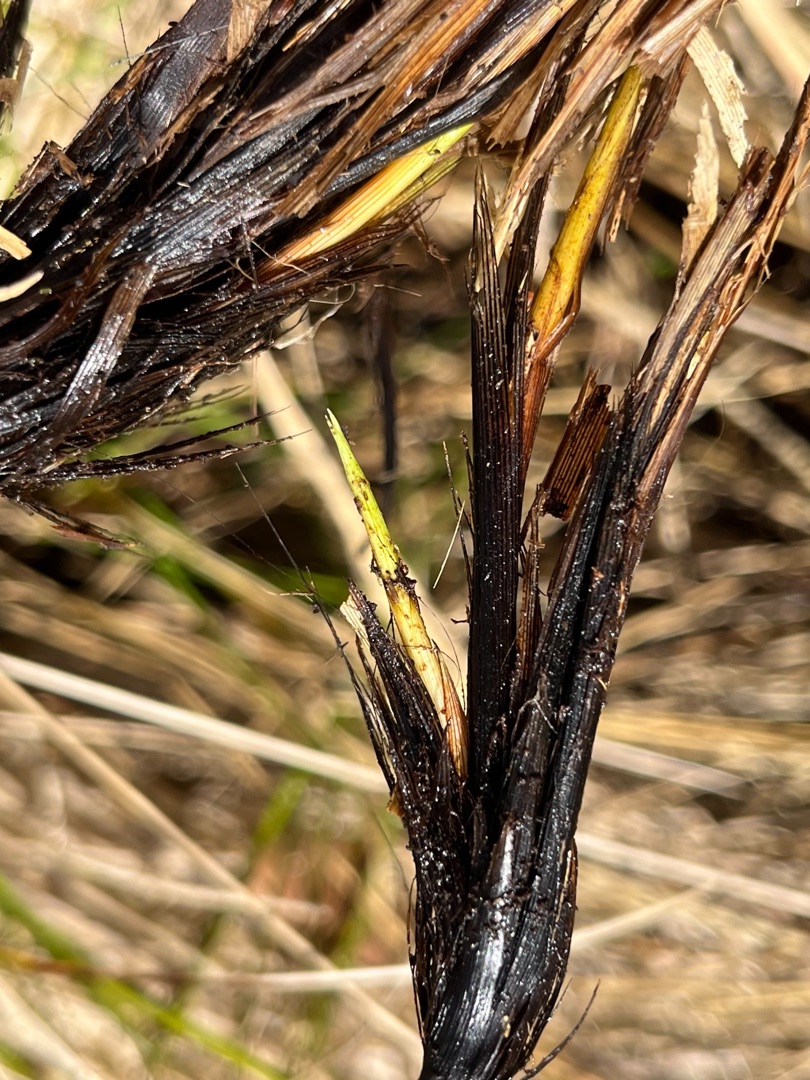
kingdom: Plantae
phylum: Tracheophyta
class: Liliopsida
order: Poales
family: Cyperaceae
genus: Carex
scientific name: Carex appropinquata
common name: Langakset star
